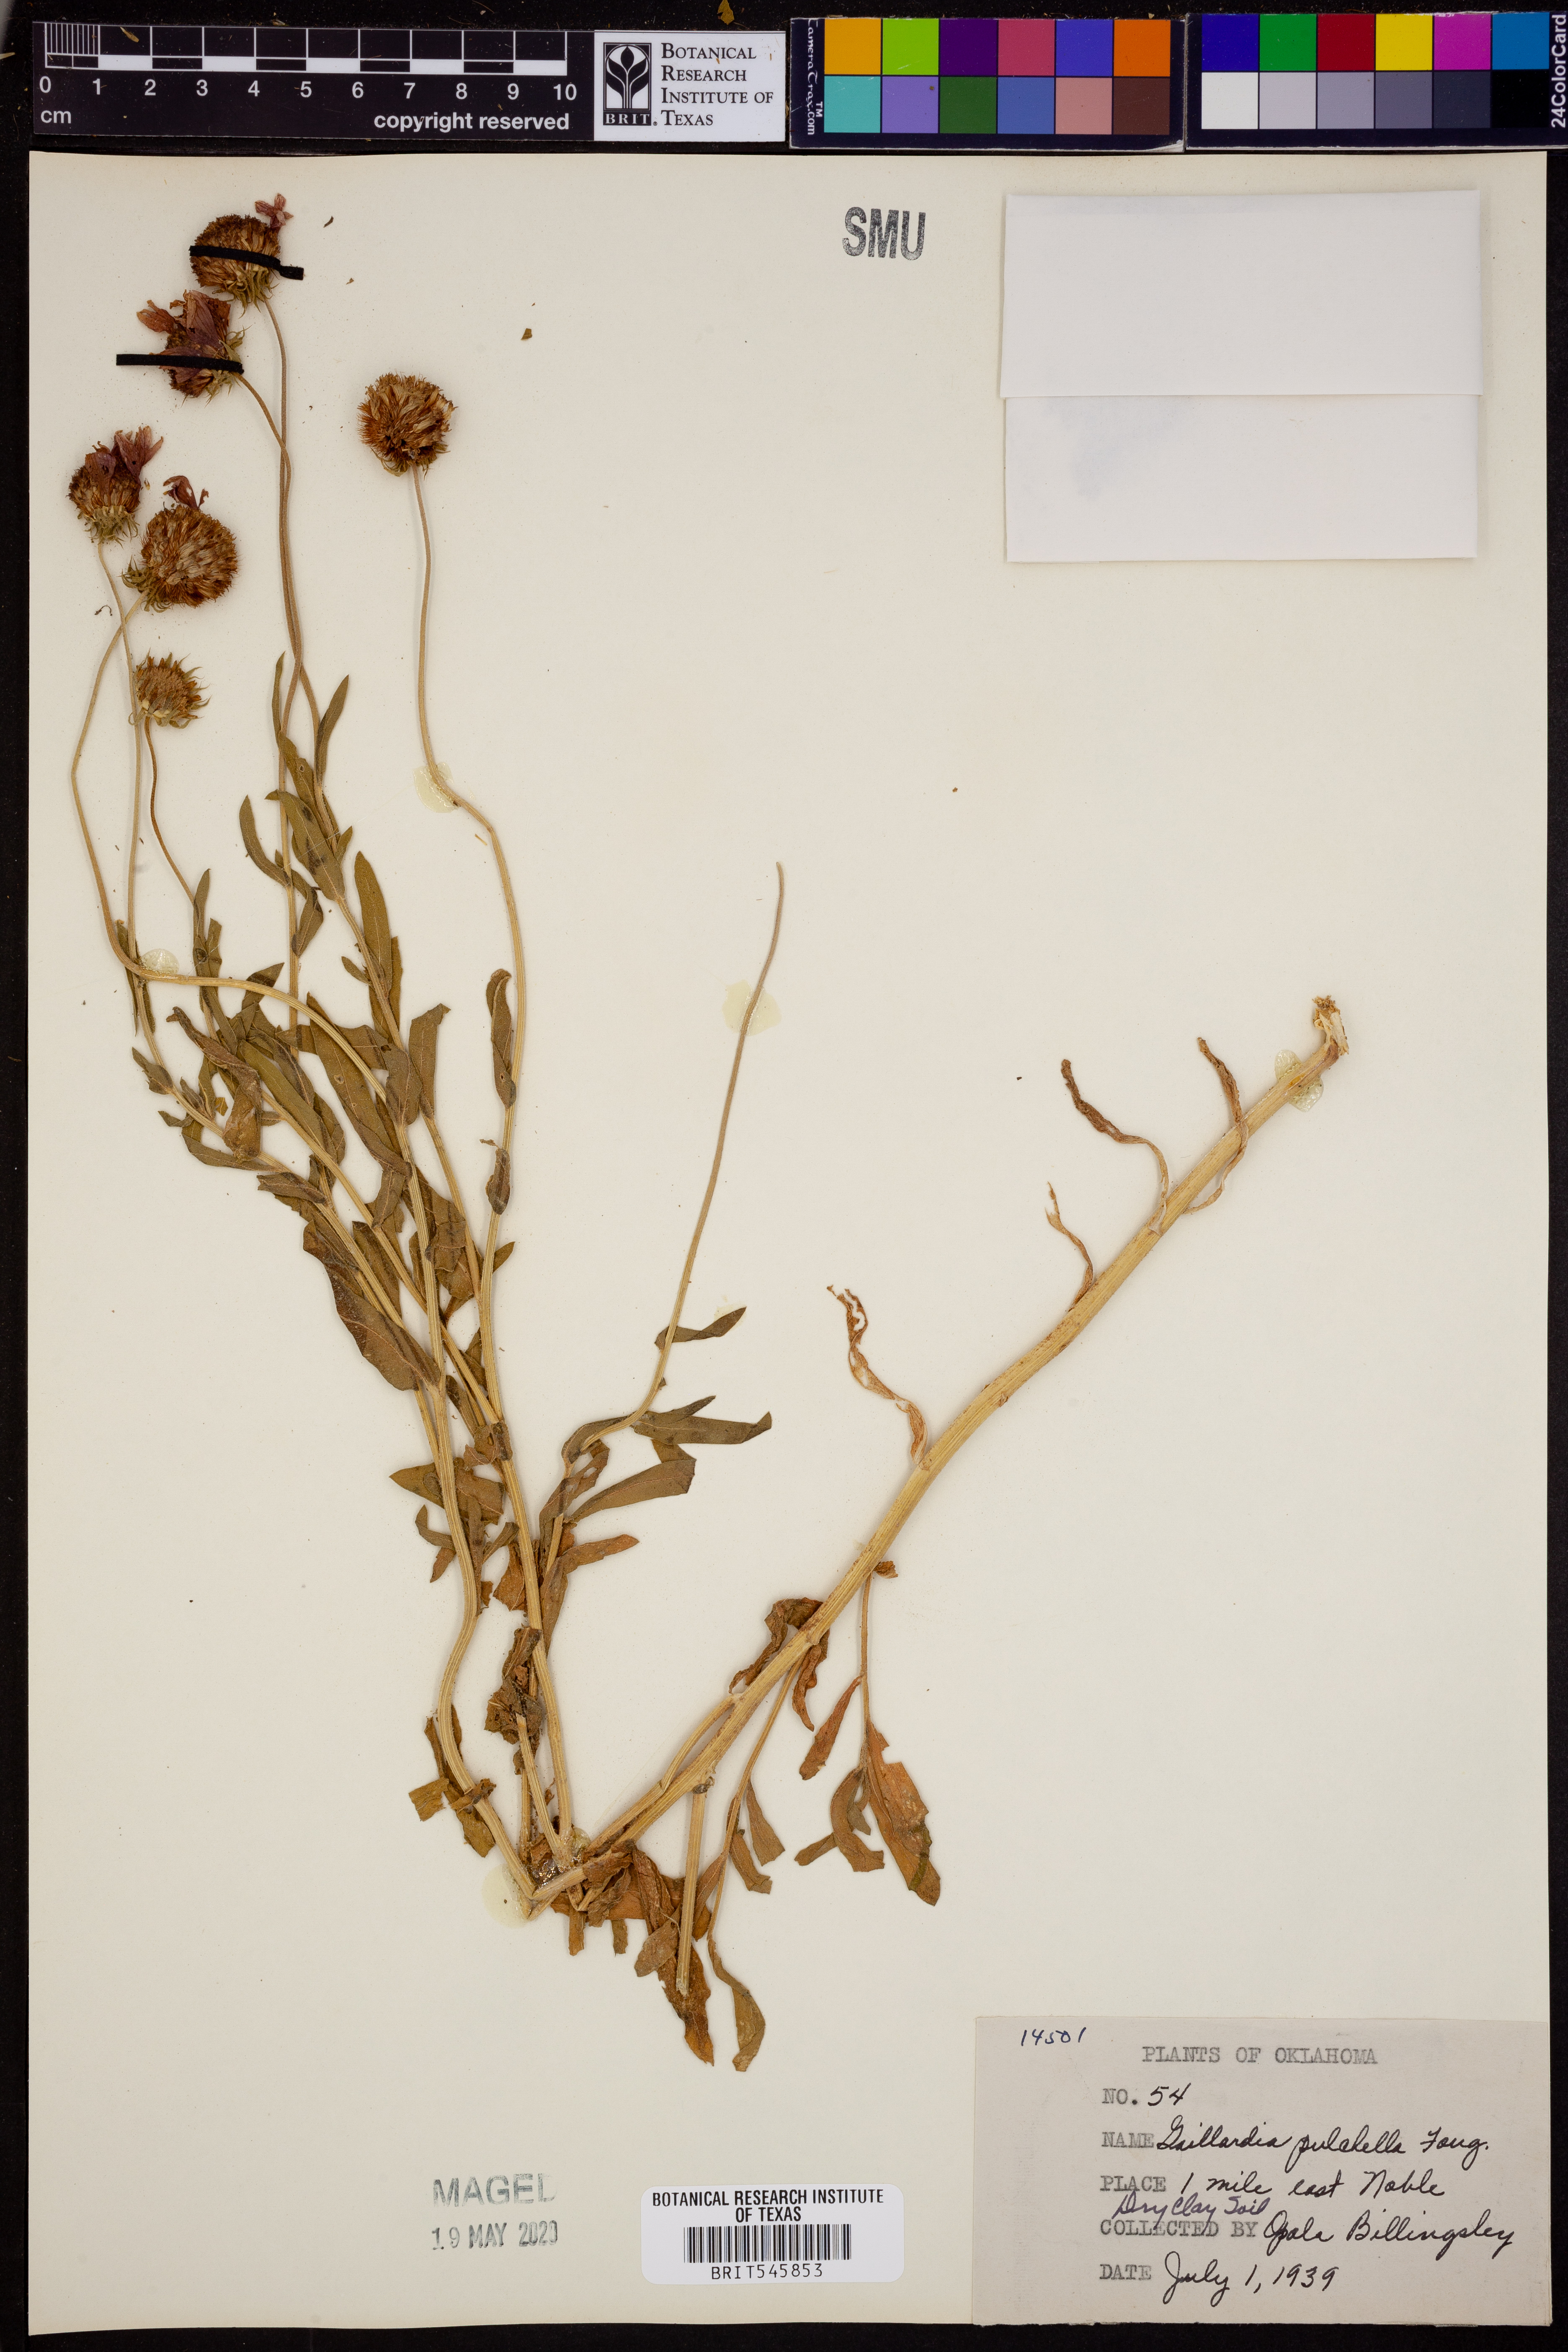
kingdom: Plantae
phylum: Tracheophyta
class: Magnoliopsida
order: Asterales
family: Asteraceae
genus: Gaillardia
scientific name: Gaillardia pulchella
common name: Firewheel
